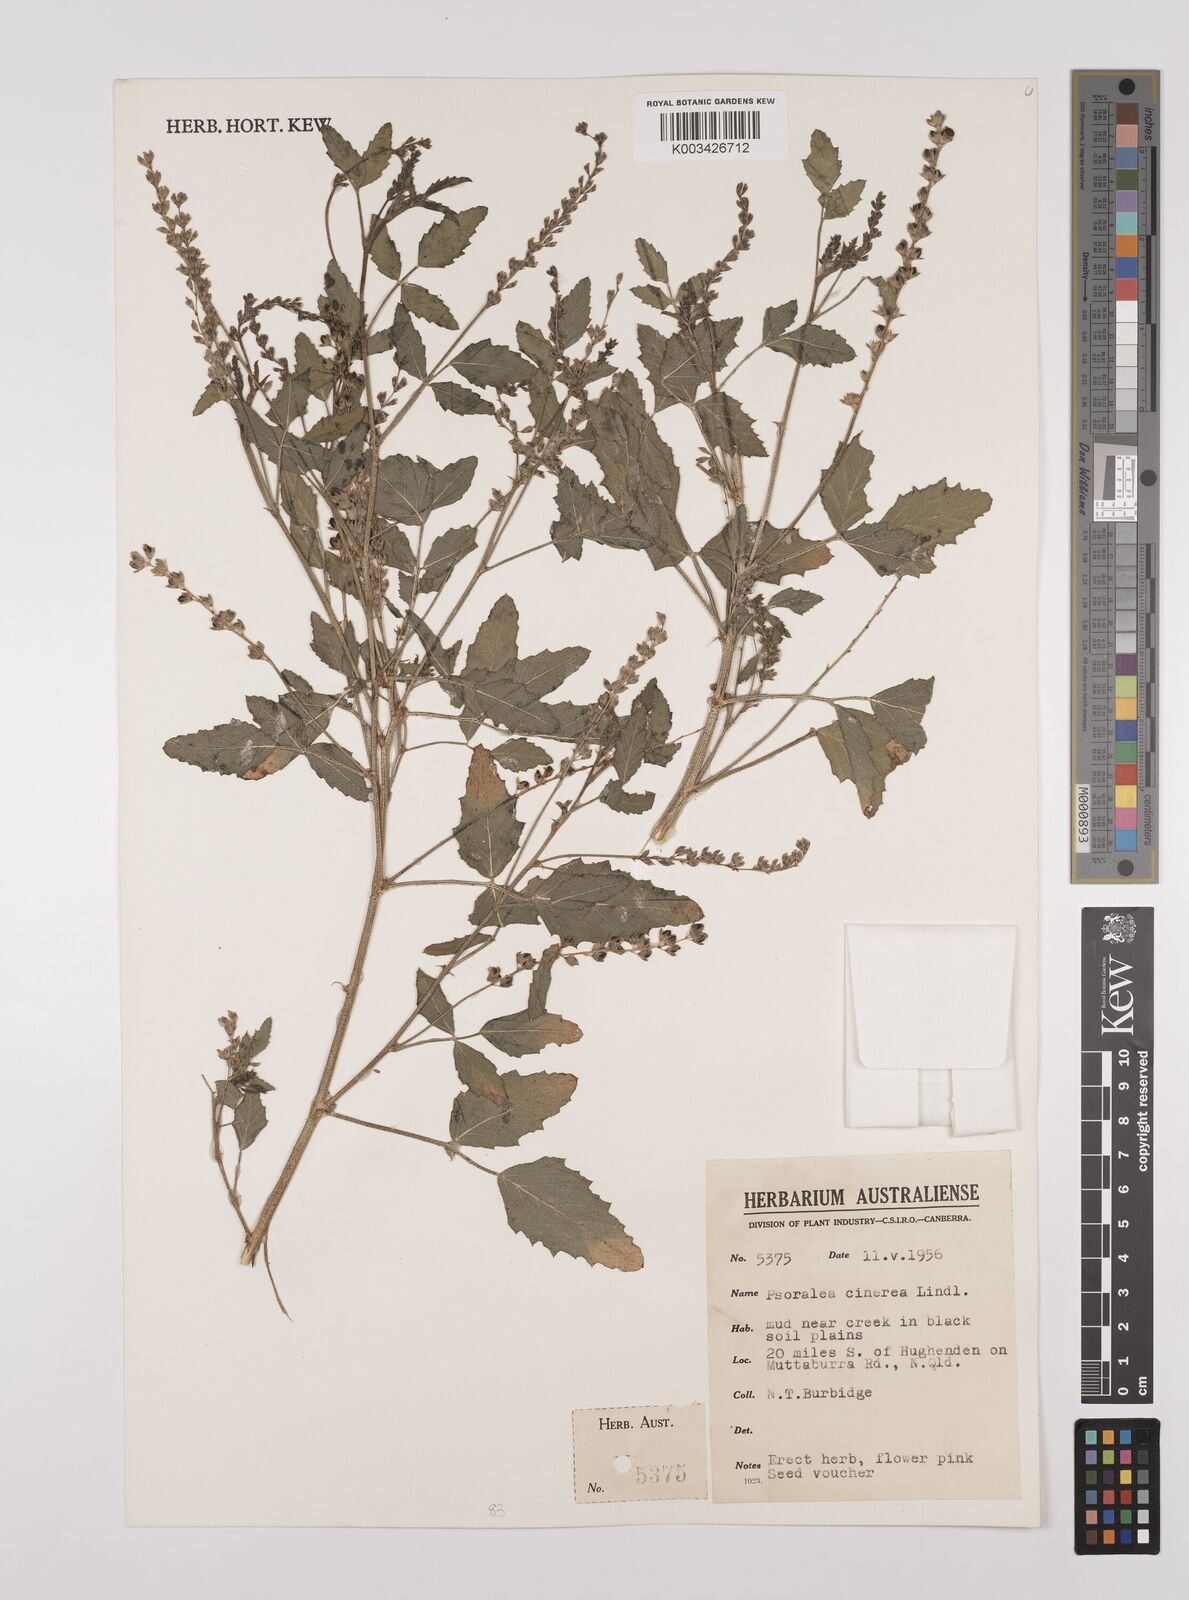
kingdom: Plantae
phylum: Tracheophyta
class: Magnoliopsida
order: Fabales
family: Fabaceae
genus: Cullen
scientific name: Cullen cinereum
